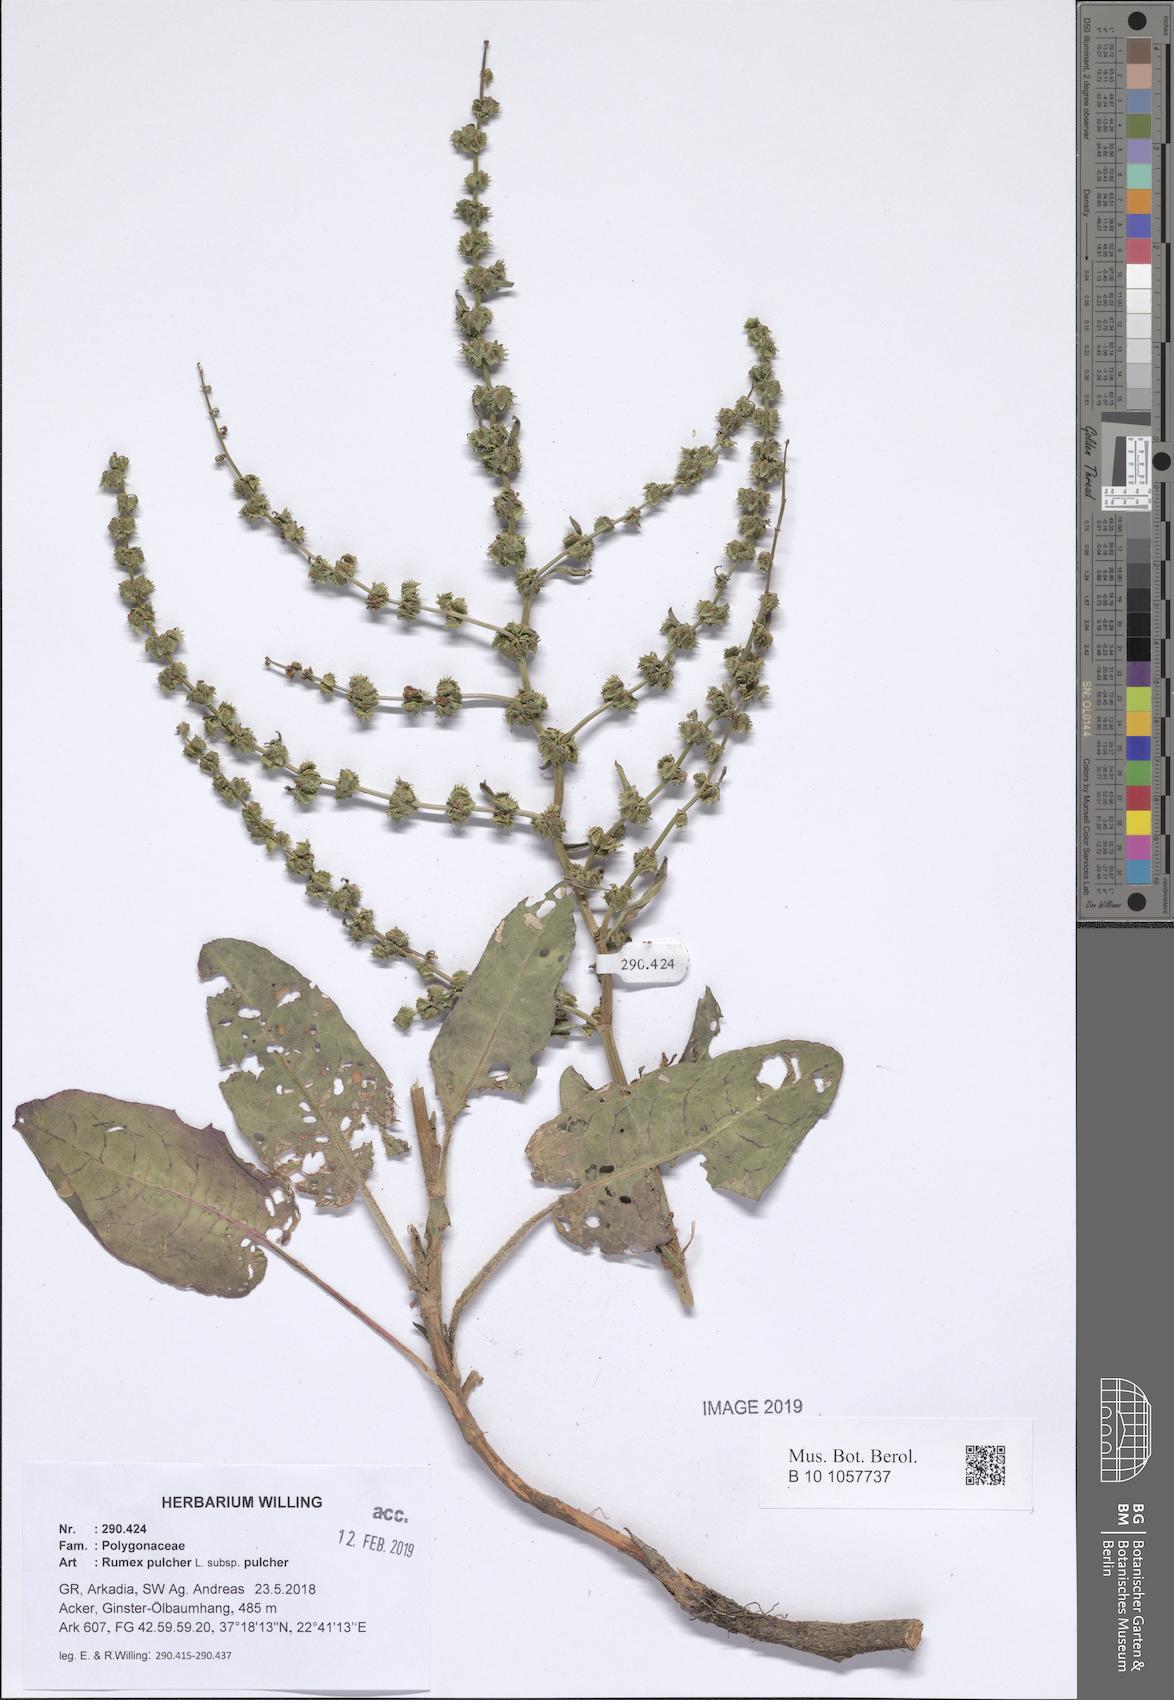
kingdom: Plantae
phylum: Tracheophyta
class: Magnoliopsida
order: Caryophyllales
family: Polygonaceae
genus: Rumex
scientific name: Rumex pulcher
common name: Fiddle dock
